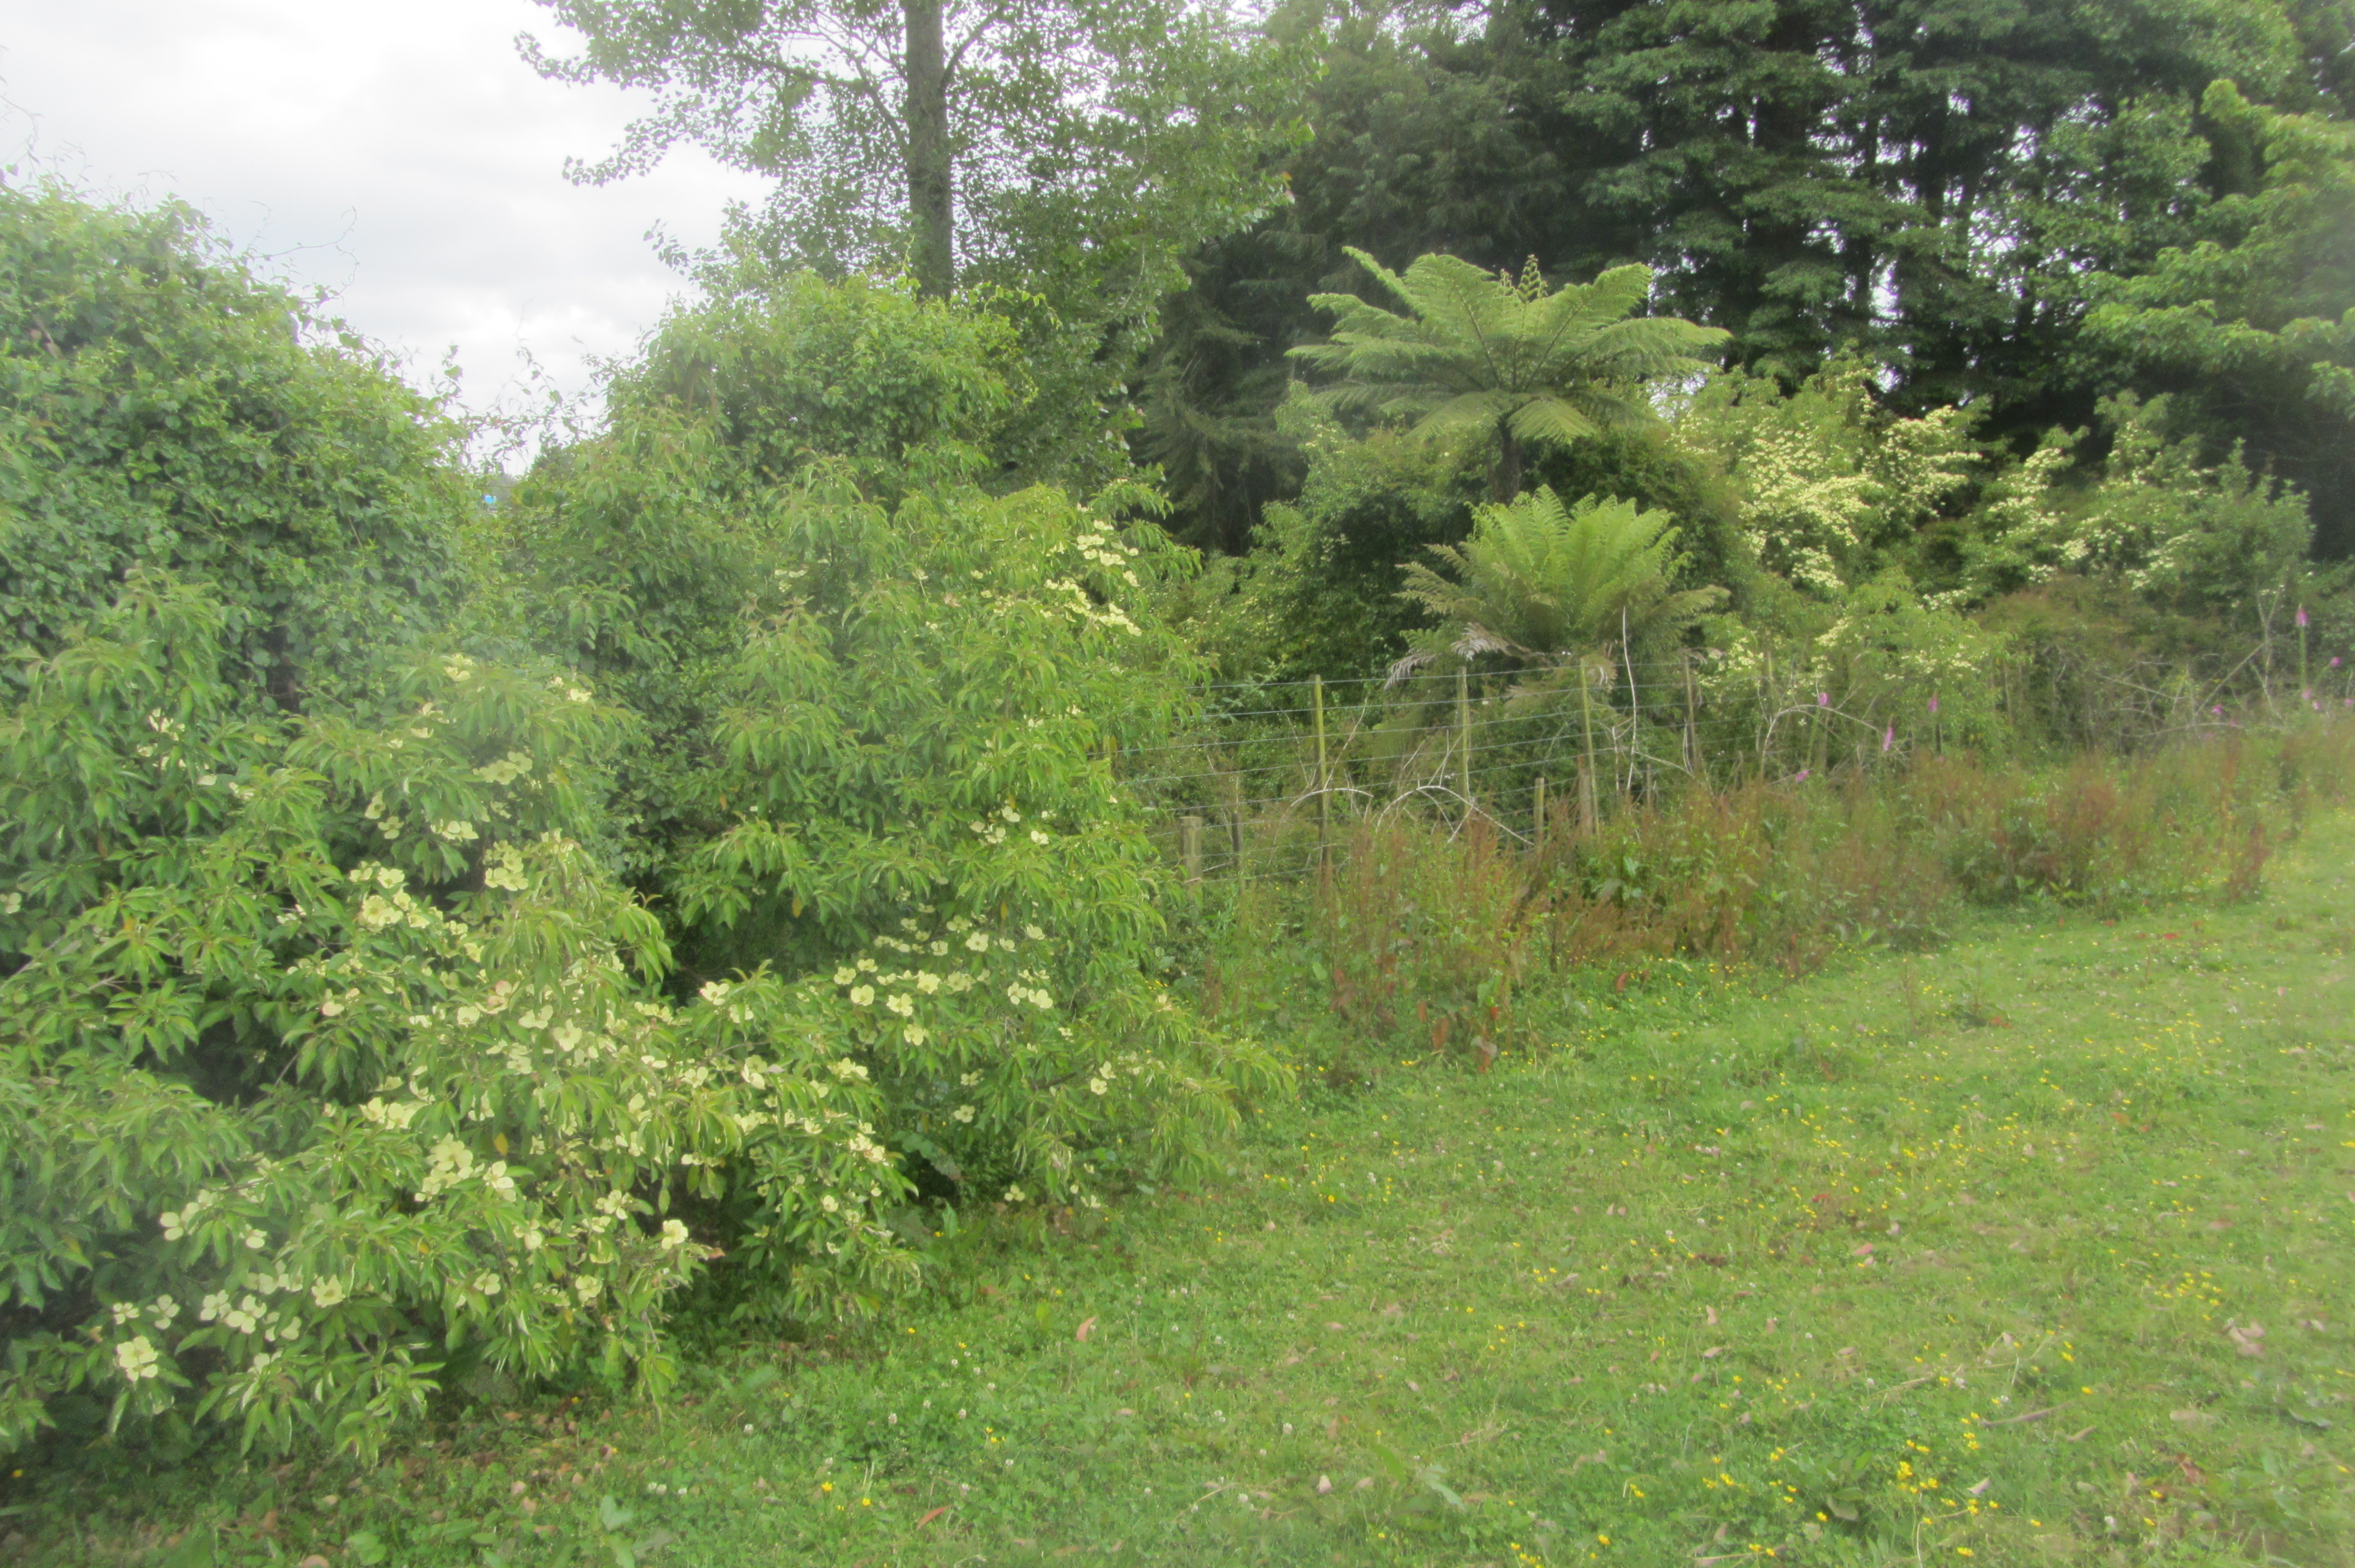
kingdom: Plantae
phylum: Tracheophyta
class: Magnoliopsida
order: Cornales
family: Cornaceae
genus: Cornus
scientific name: Cornus capitata
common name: Bentham's cornel
